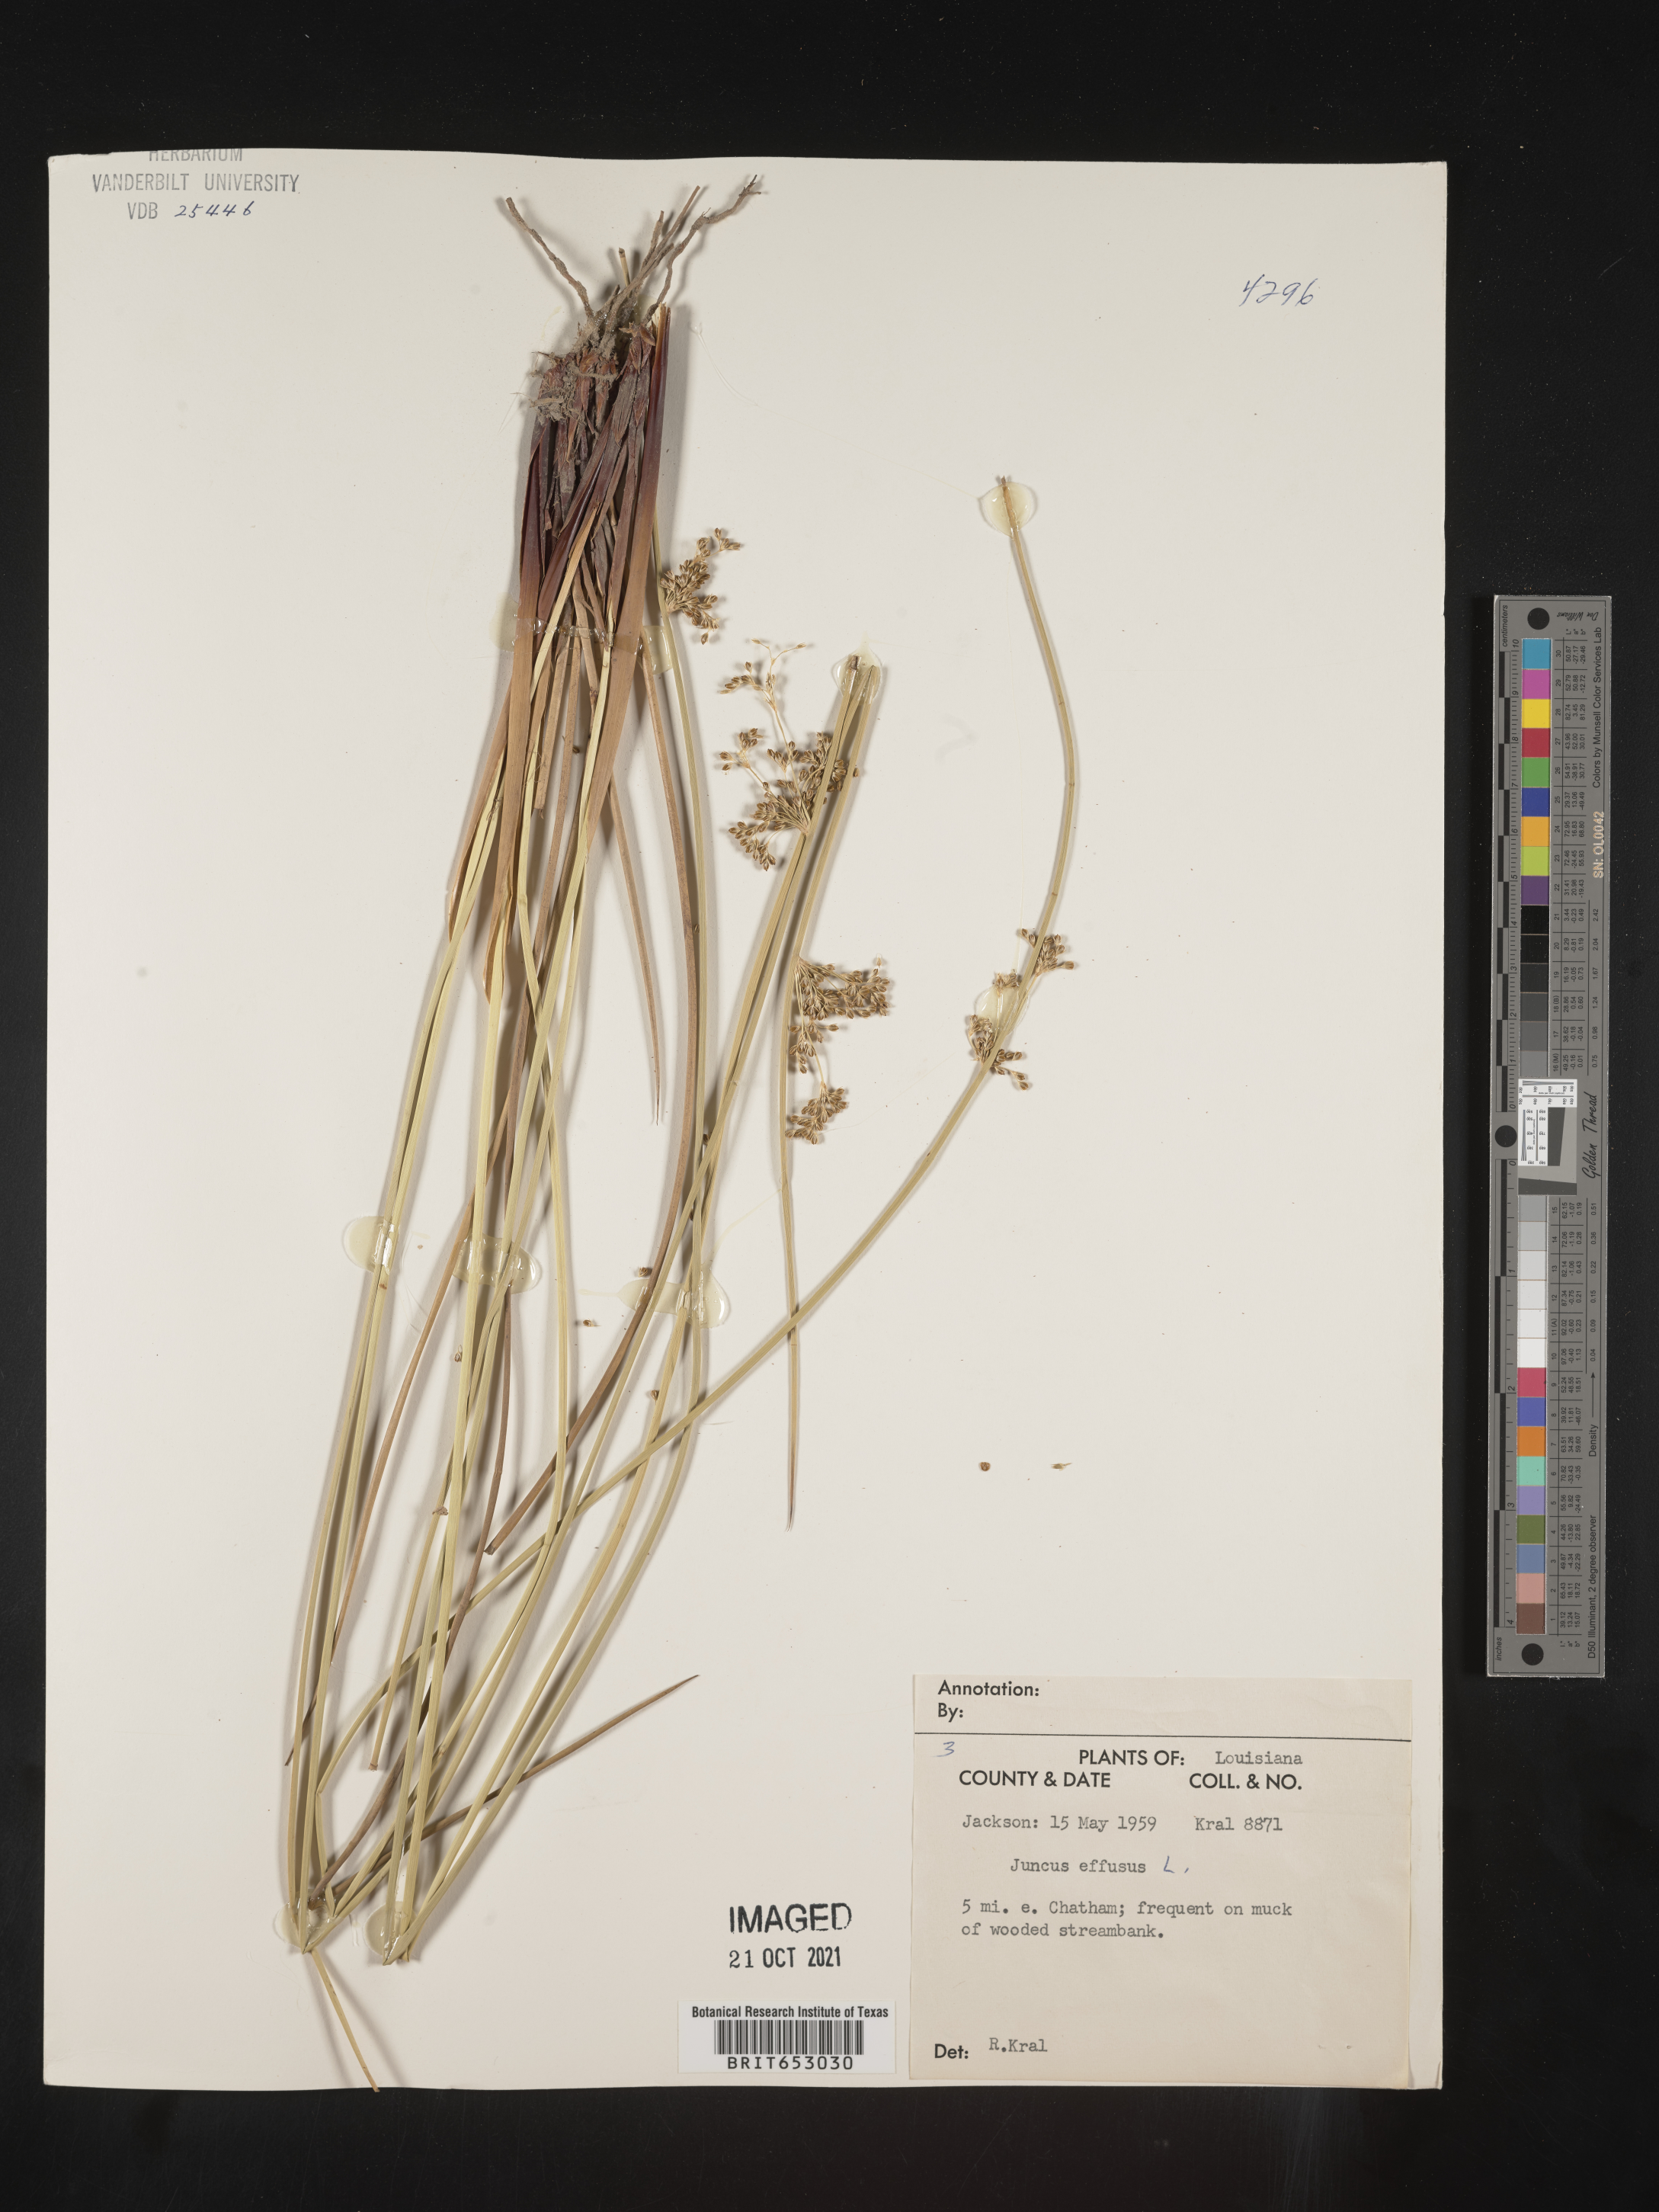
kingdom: Plantae
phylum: Tracheophyta
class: Liliopsida
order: Poales
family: Juncaceae
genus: Juncus
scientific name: Juncus effusus
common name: Soft rush
